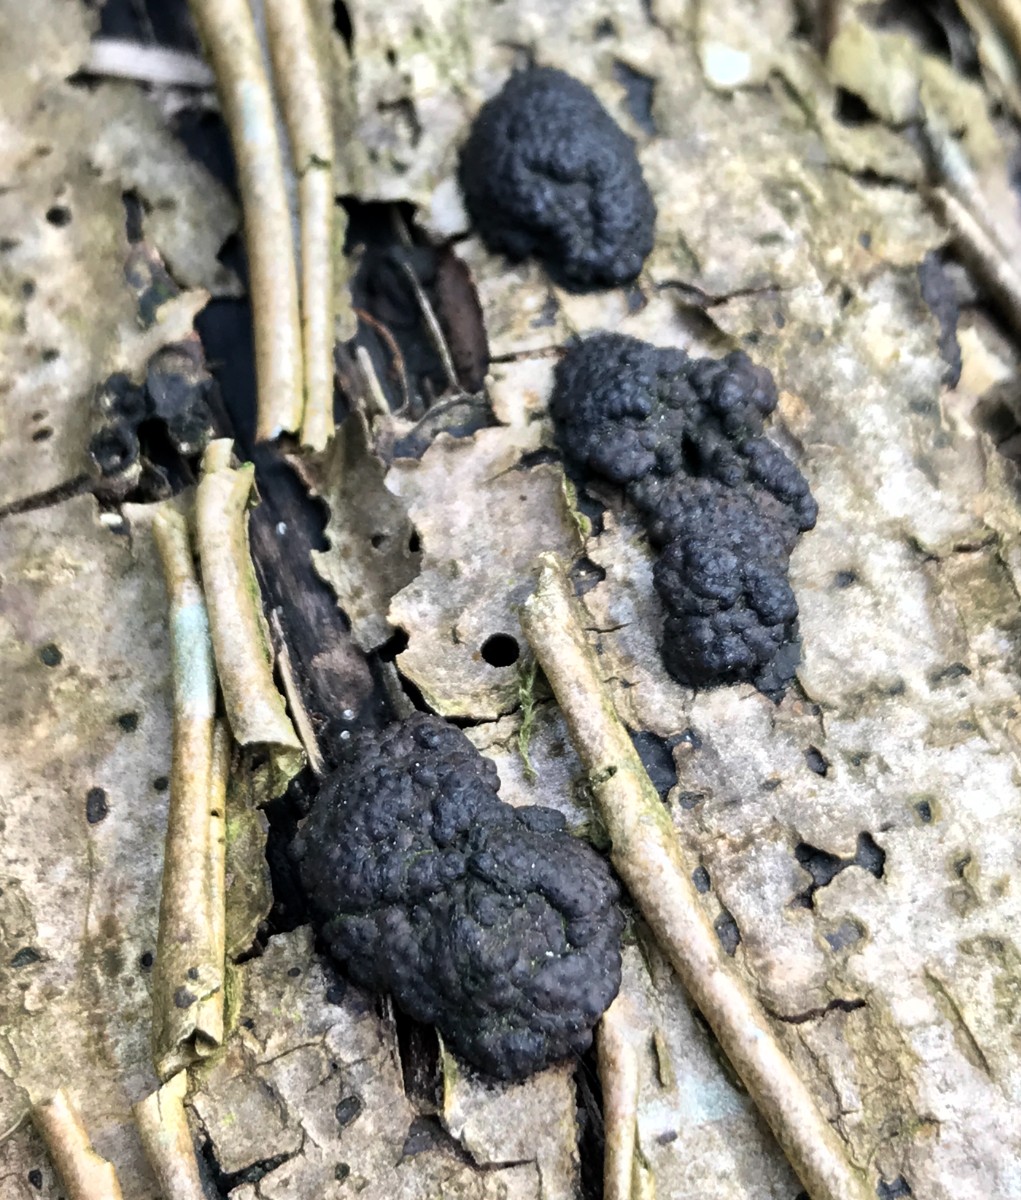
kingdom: Fungi
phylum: Ascomycota
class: Sordariomycetes
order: Xylariales
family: Hypoxylaceae
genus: Jackrogersella
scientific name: Jackrogersella multiformis
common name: foranderlig kulbær
